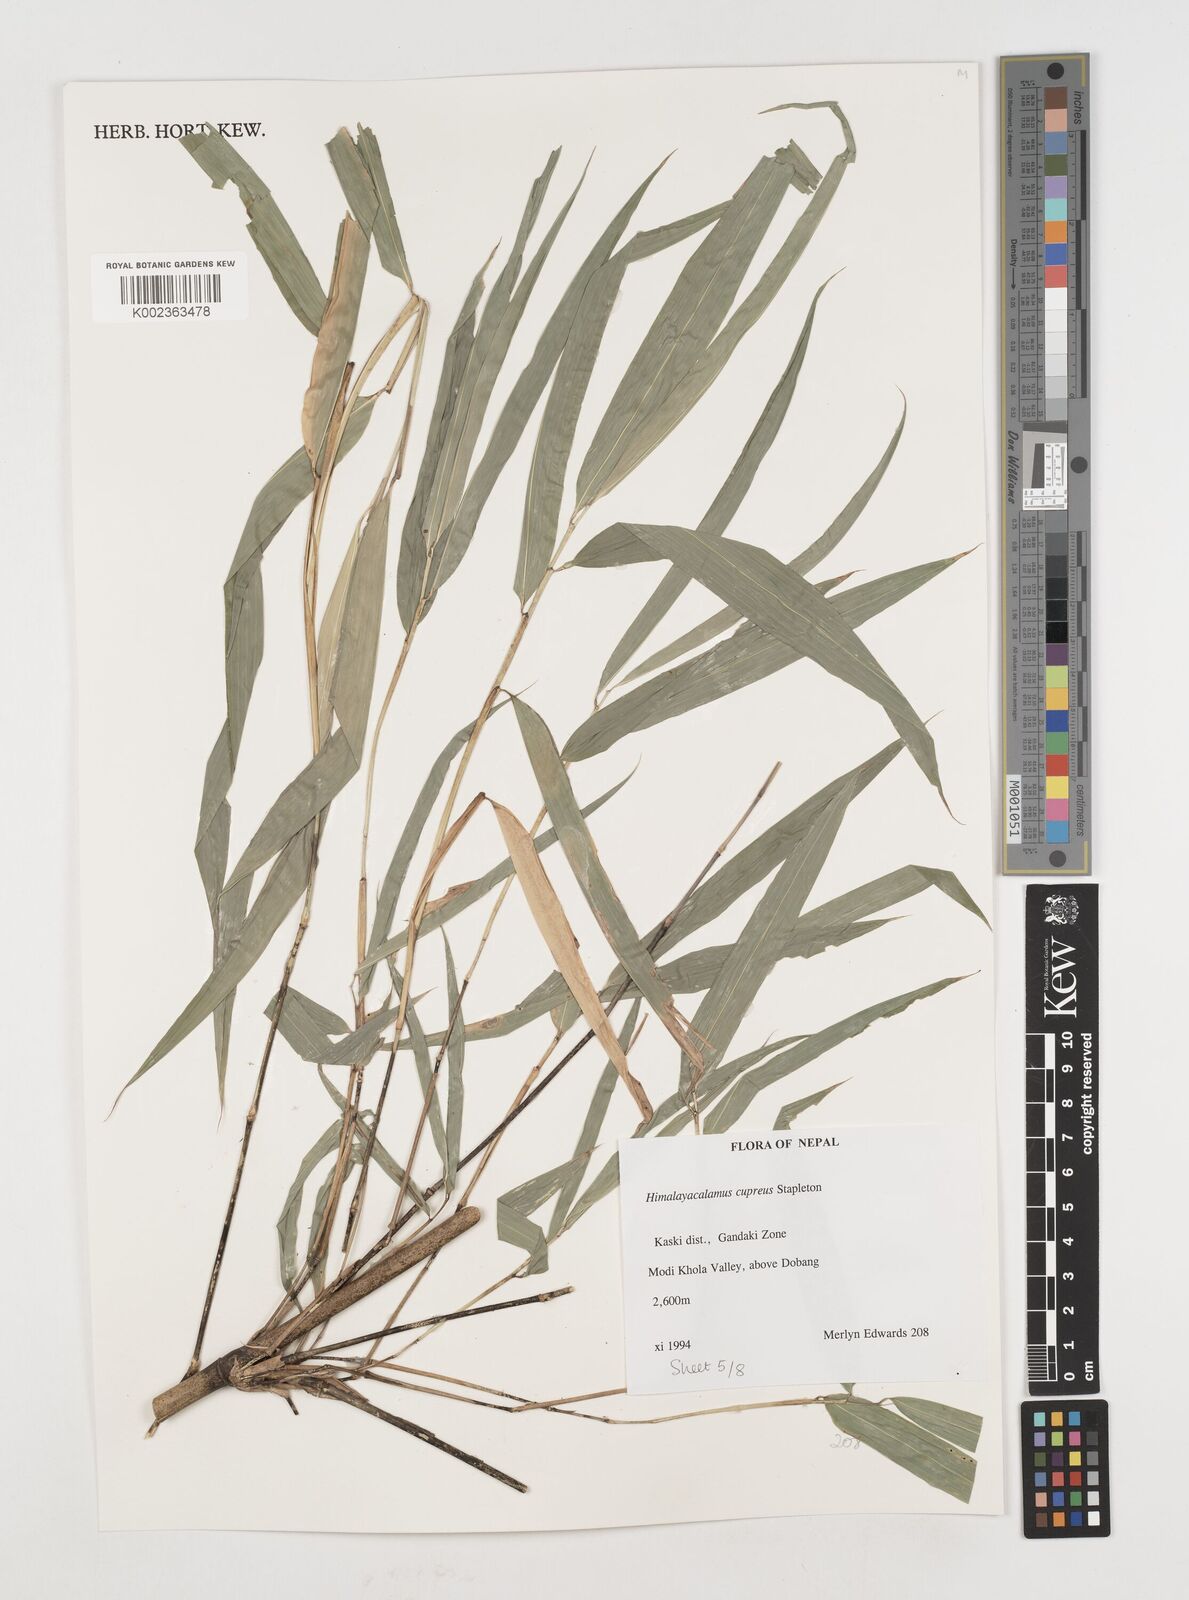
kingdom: Plantae
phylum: Tracheophyta
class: Liliopsida
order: Poales
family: Poaceae
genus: Himalayacalamus
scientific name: Himalayacalamus cupreus
